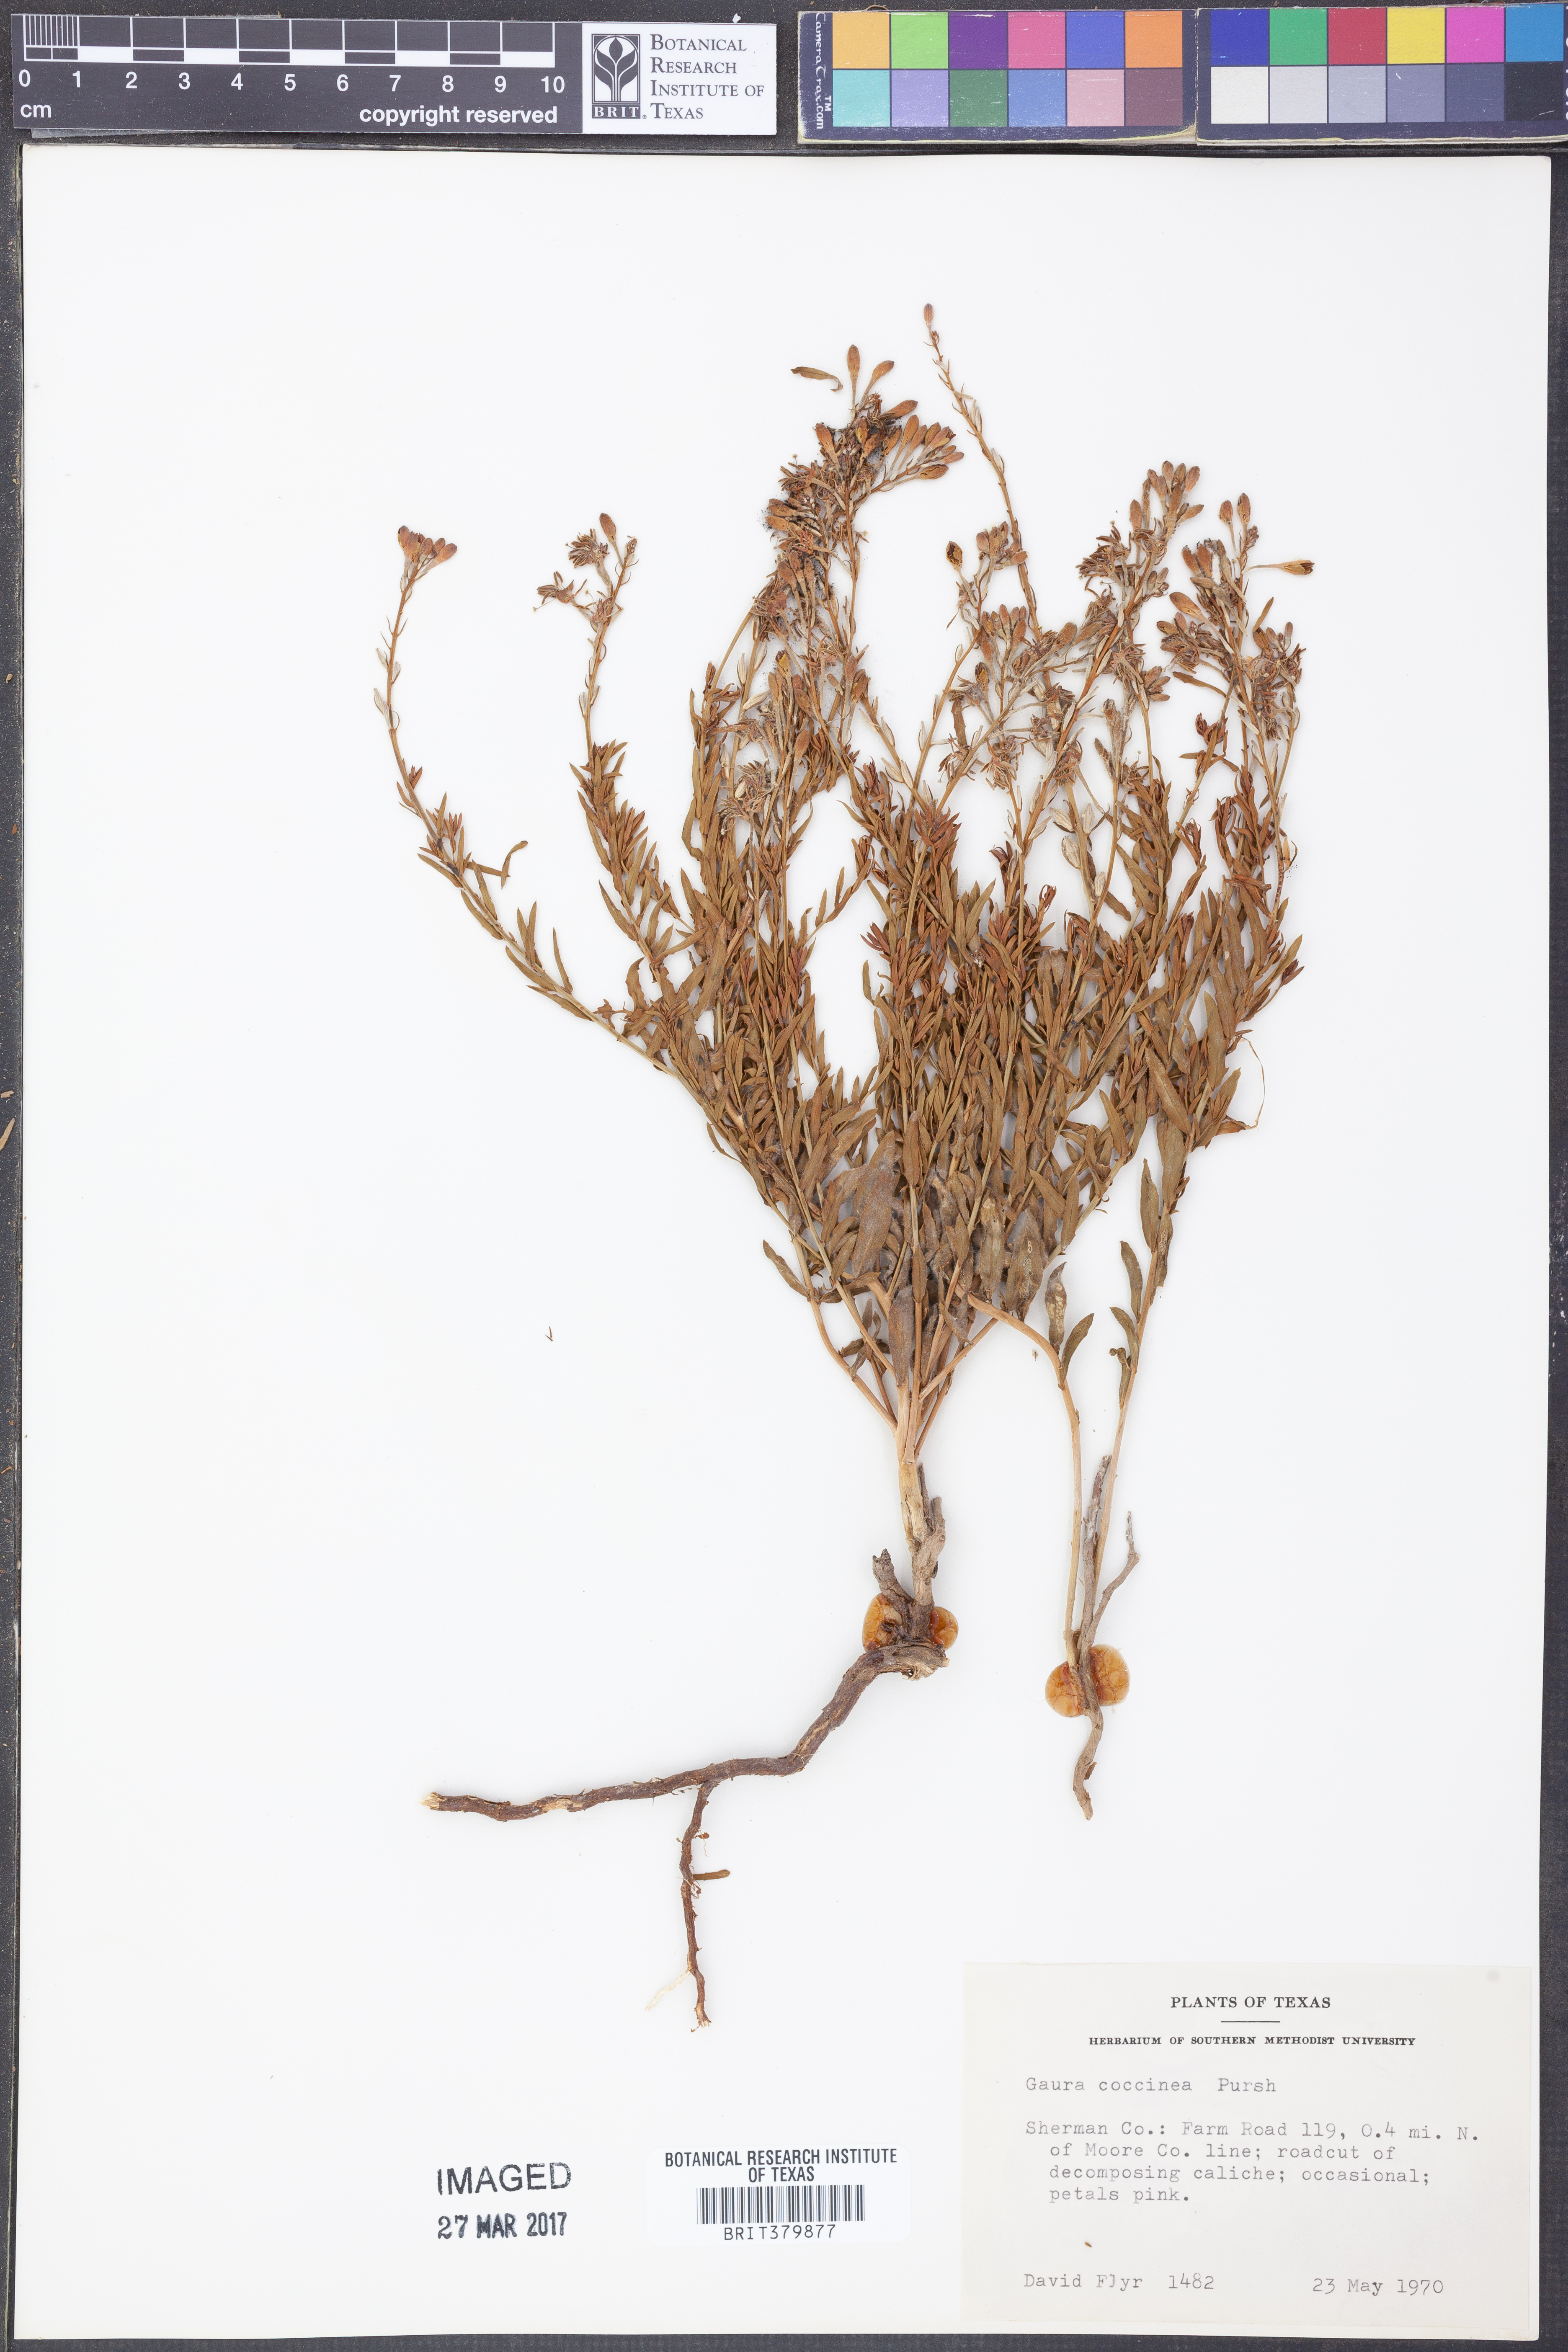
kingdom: Plantae
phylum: Tracheophyta
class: Magnoliopsida
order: Myrtales
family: Onagraceae
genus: Oenothera
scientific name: Oenothera suffrutescens
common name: Scarlet beeblossom
